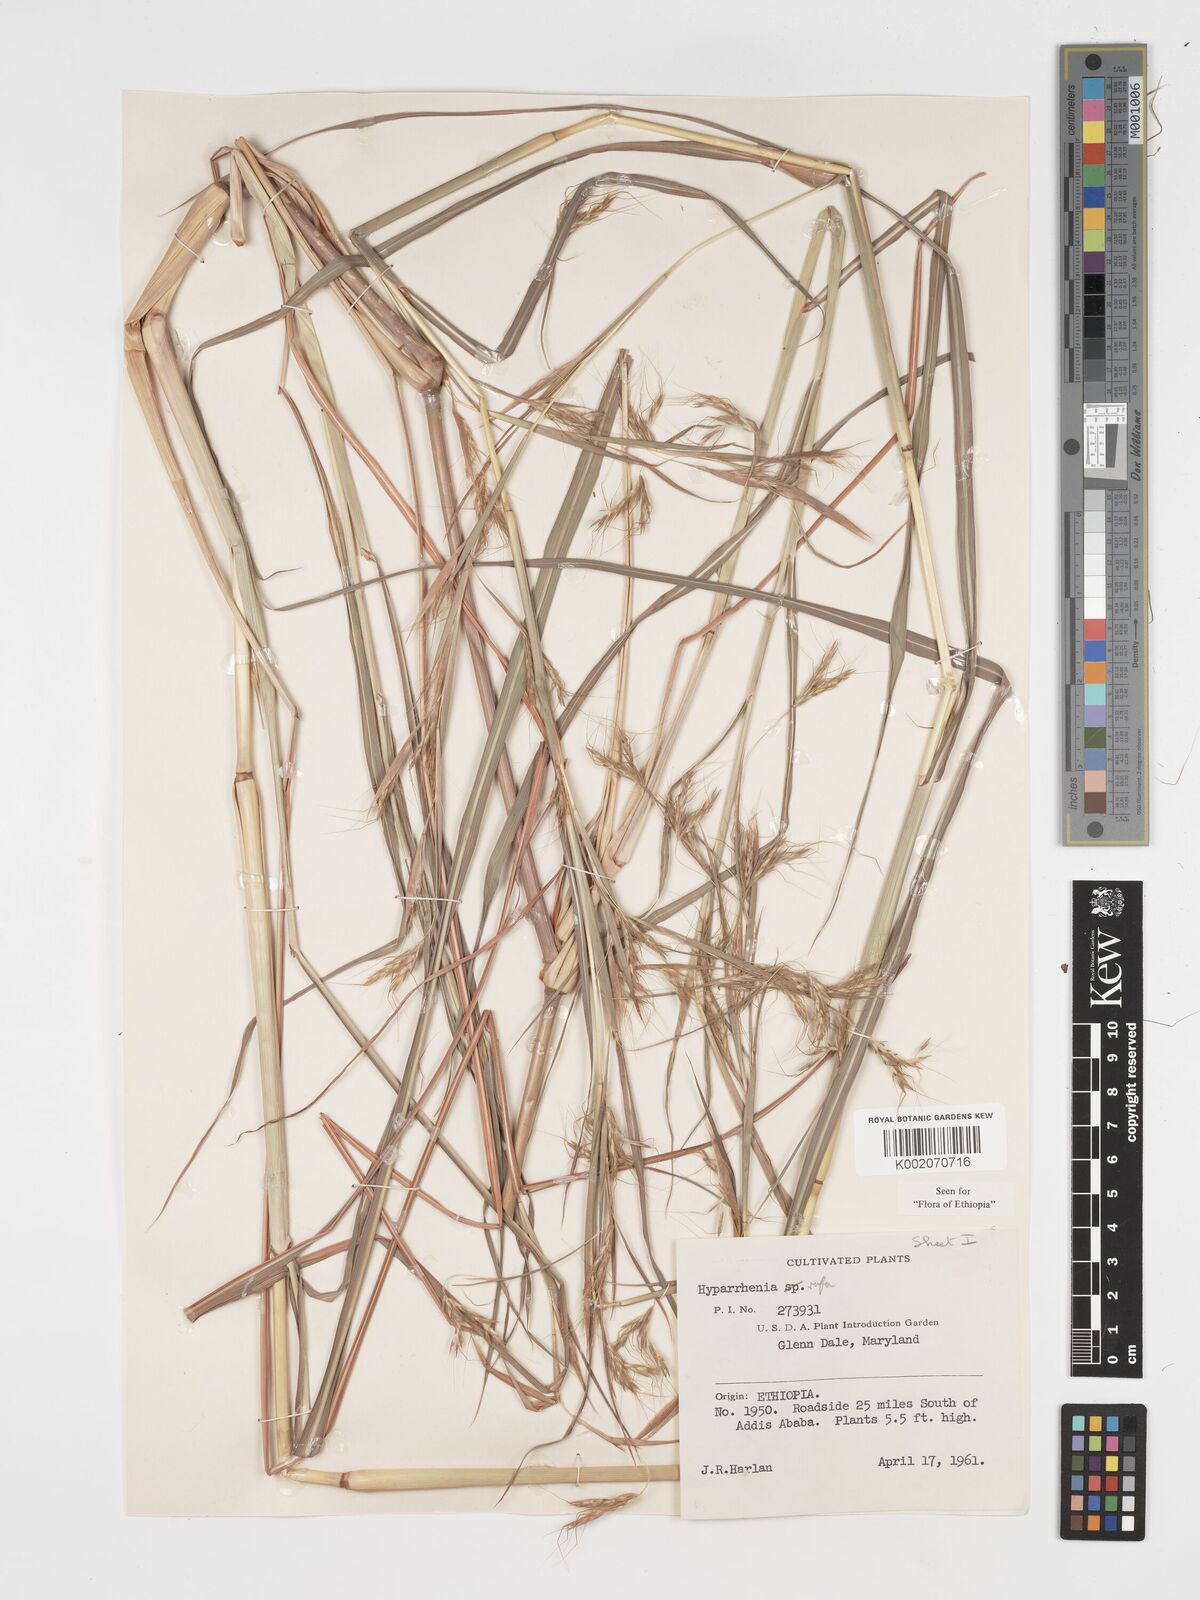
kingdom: Plantae
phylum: Tracheophyta
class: Liliopsida
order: Poales
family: Poaceae
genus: Hyparrhenia
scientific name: Hyparrhenia rufa
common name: Jaraguagrass
